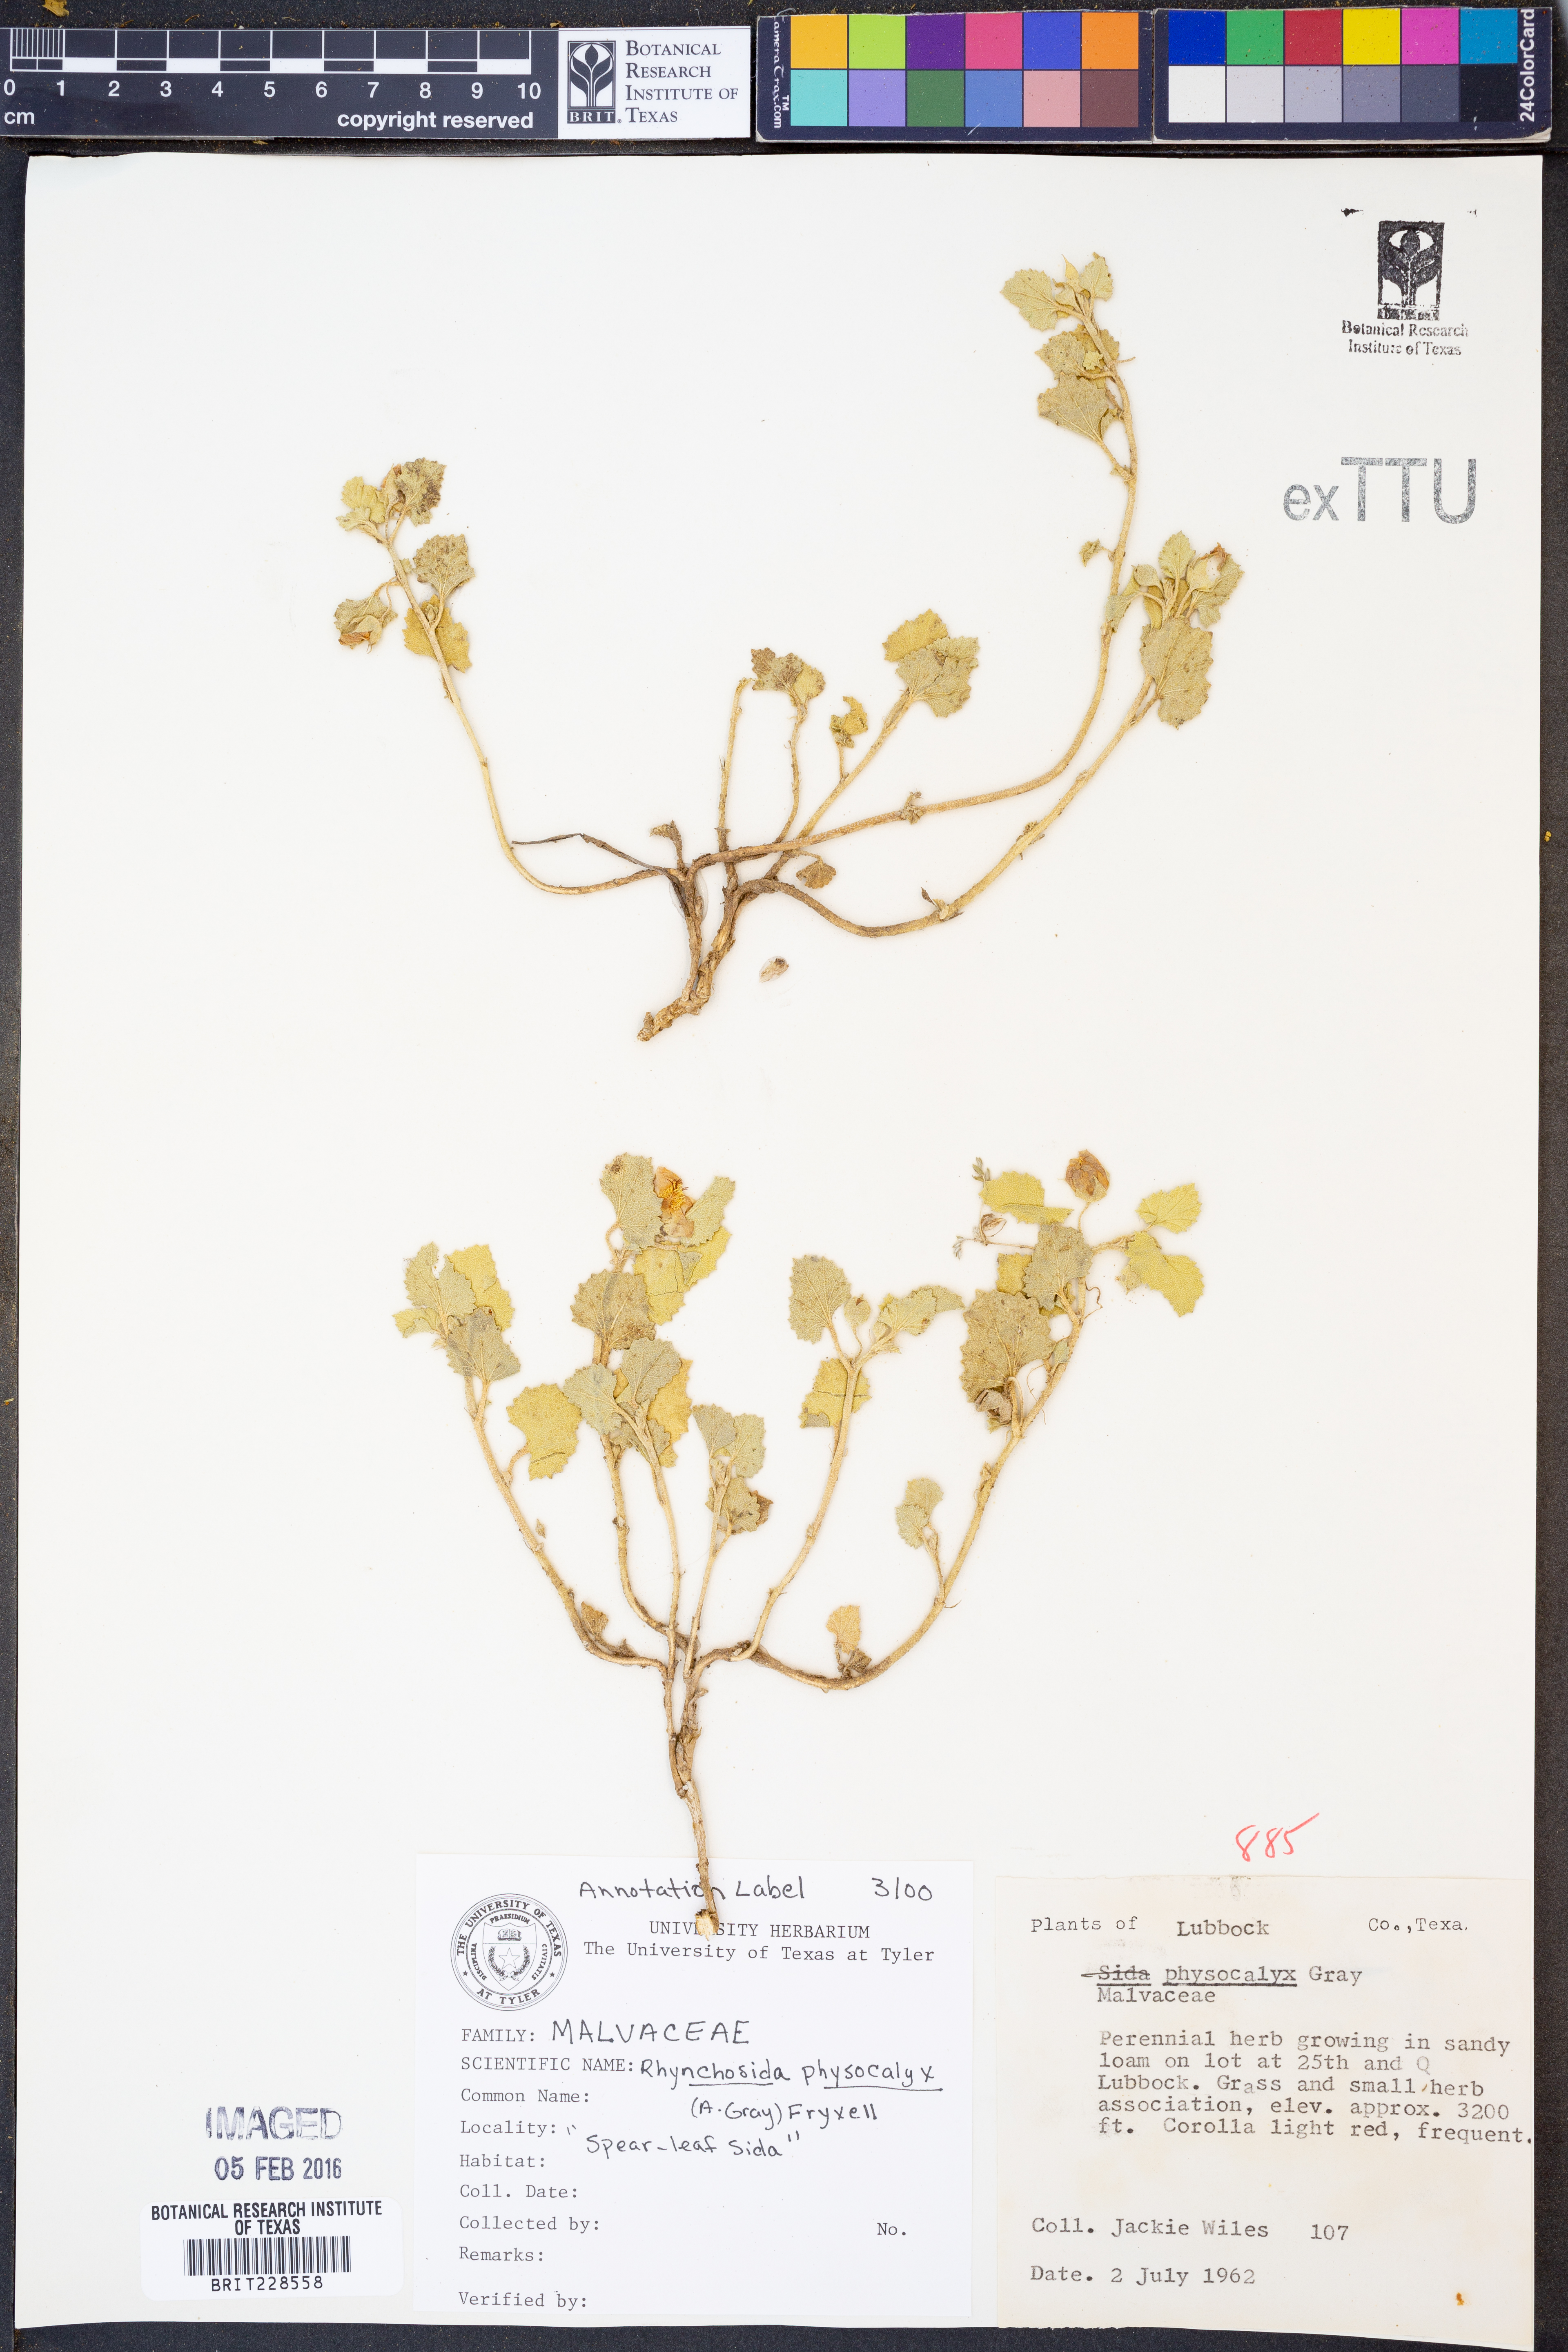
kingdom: Plantae
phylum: Tracheophyta
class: Magnoliopsida
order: Malvales
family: Malvaceae
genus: Rhynchosida
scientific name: Rhynchosida physocalyx
